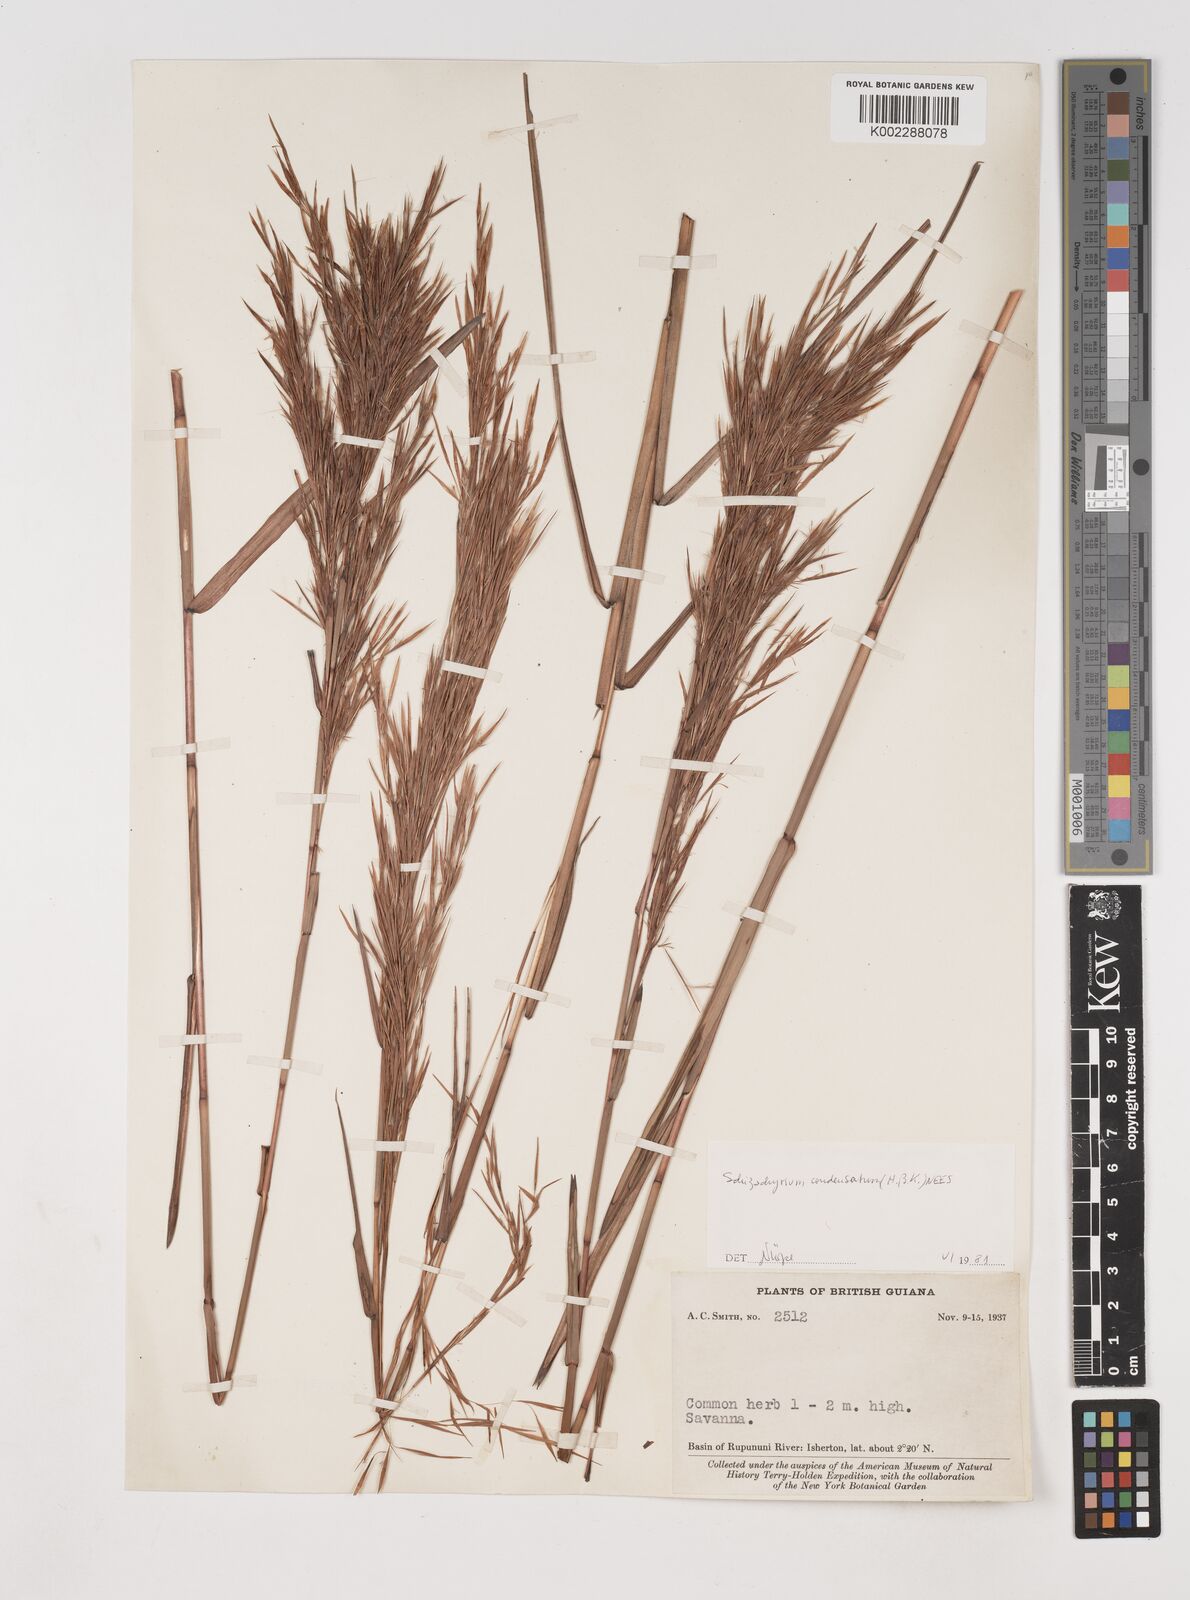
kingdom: Plantae
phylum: Tracheophyta
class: Liliopsida
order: Poales
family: Poaceae
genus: Schizachyrium
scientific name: Schizachyrium condensatum
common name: Bush beardgrass
